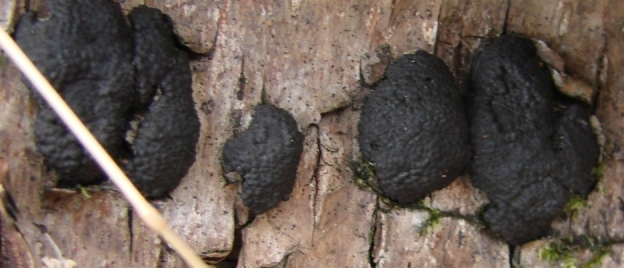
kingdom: Fungi
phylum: Ascomycota
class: Sordariomycetes
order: Xylariales
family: Hypoxylaceae
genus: Jackrogersella
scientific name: Jackrogersella multiformis
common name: foranderlig kulbær
